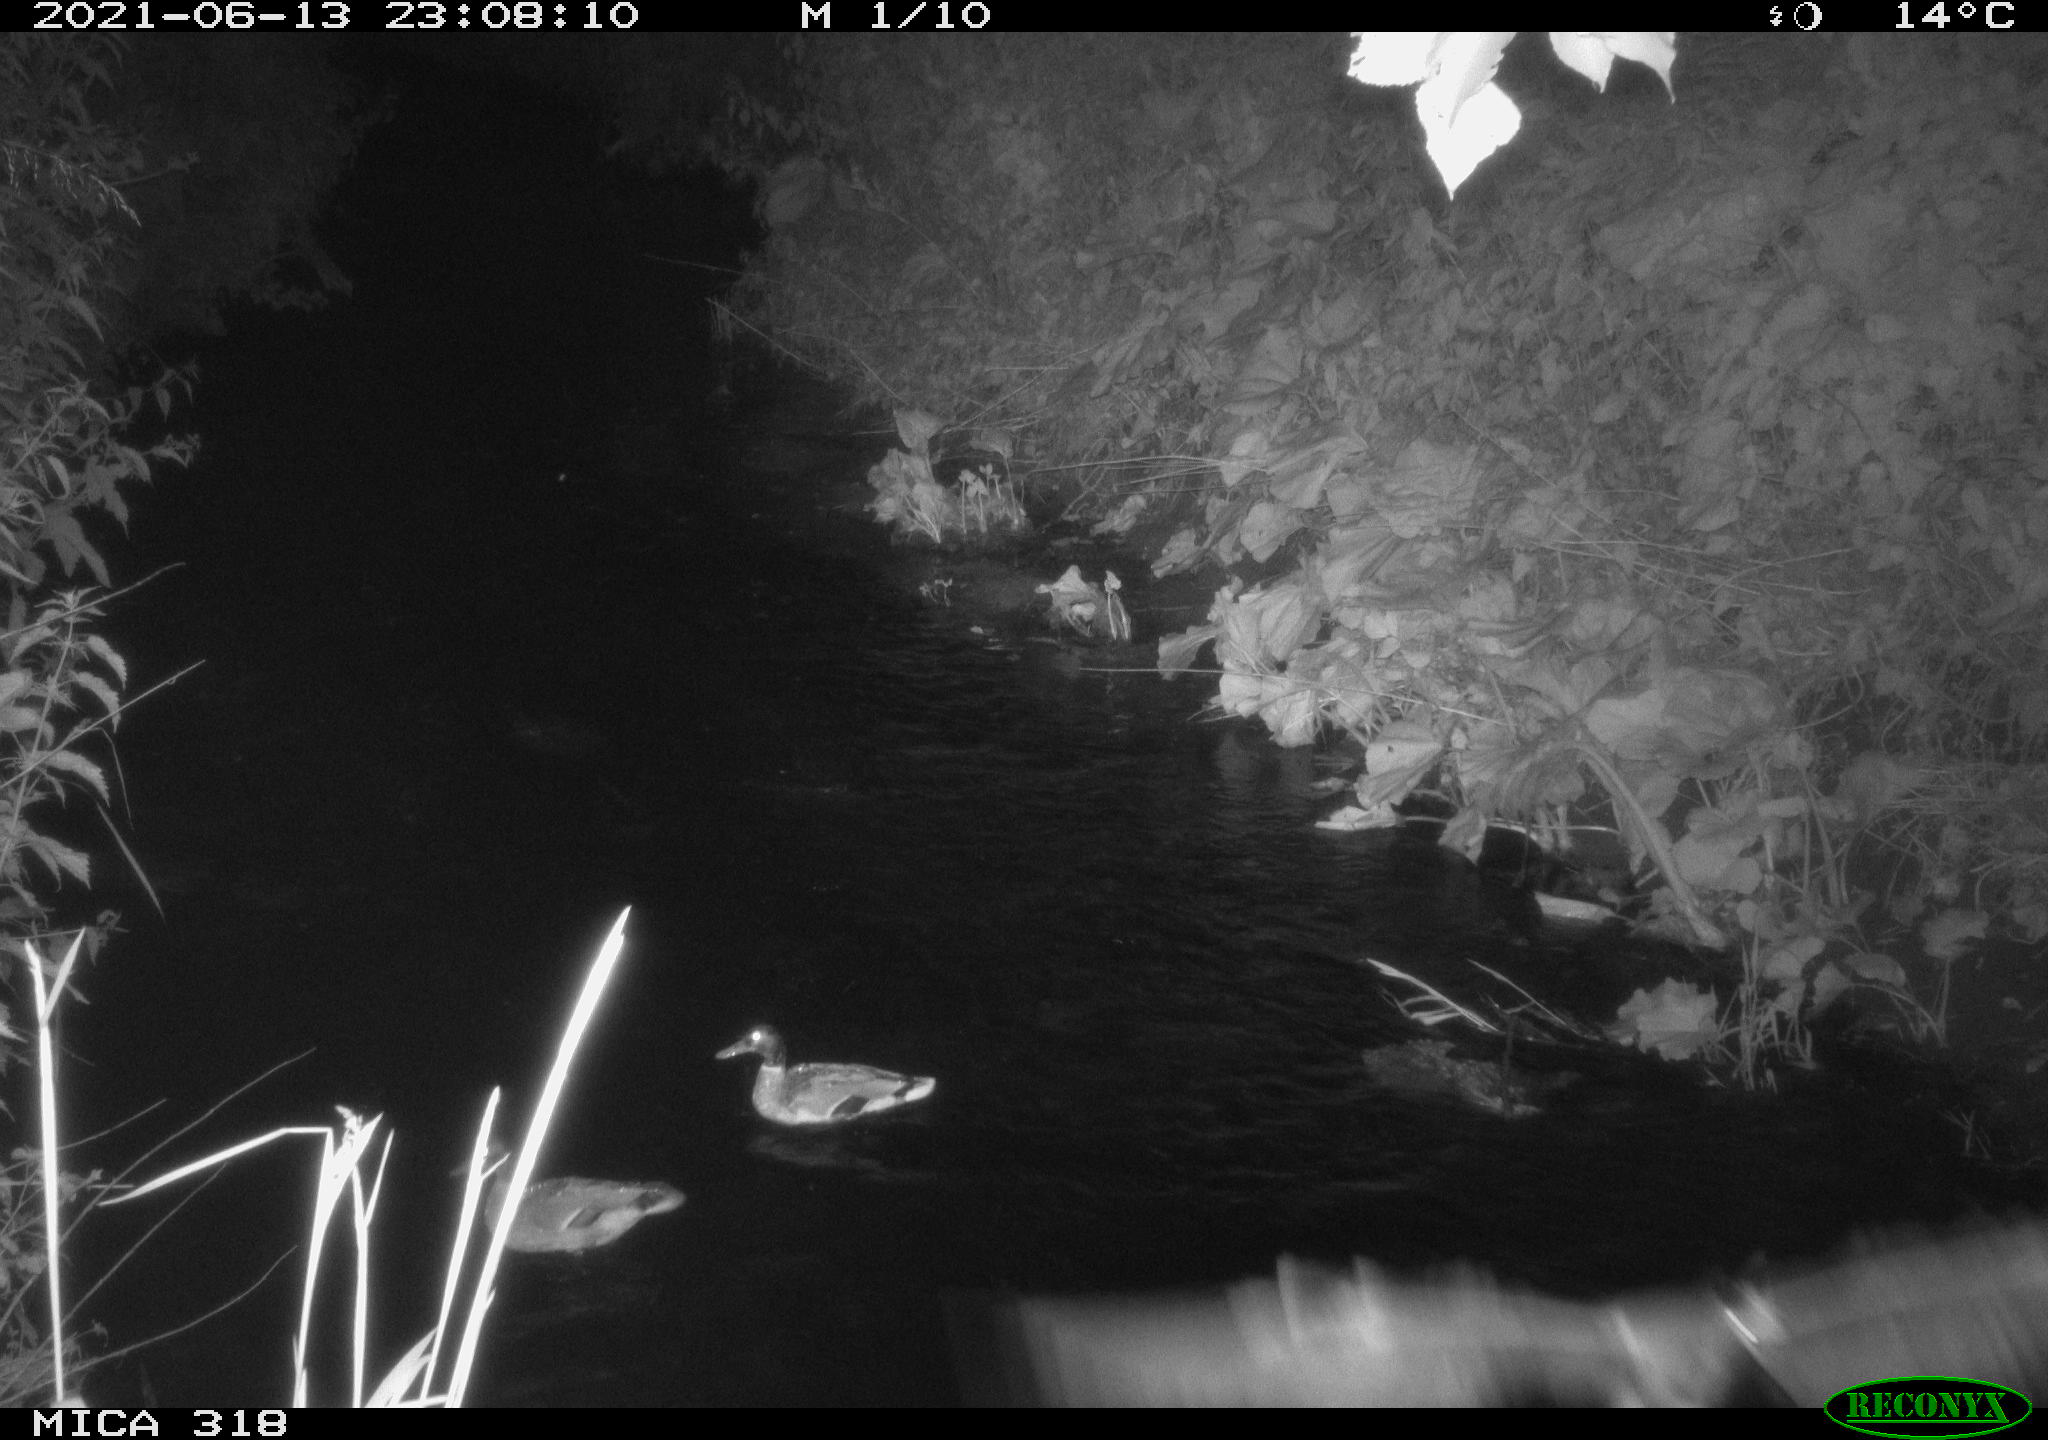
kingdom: Animalia
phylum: Chordata
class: Aves
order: Anseriformes
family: Anatidae
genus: Anas
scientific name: Anas platyrhynchos
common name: Mallard
